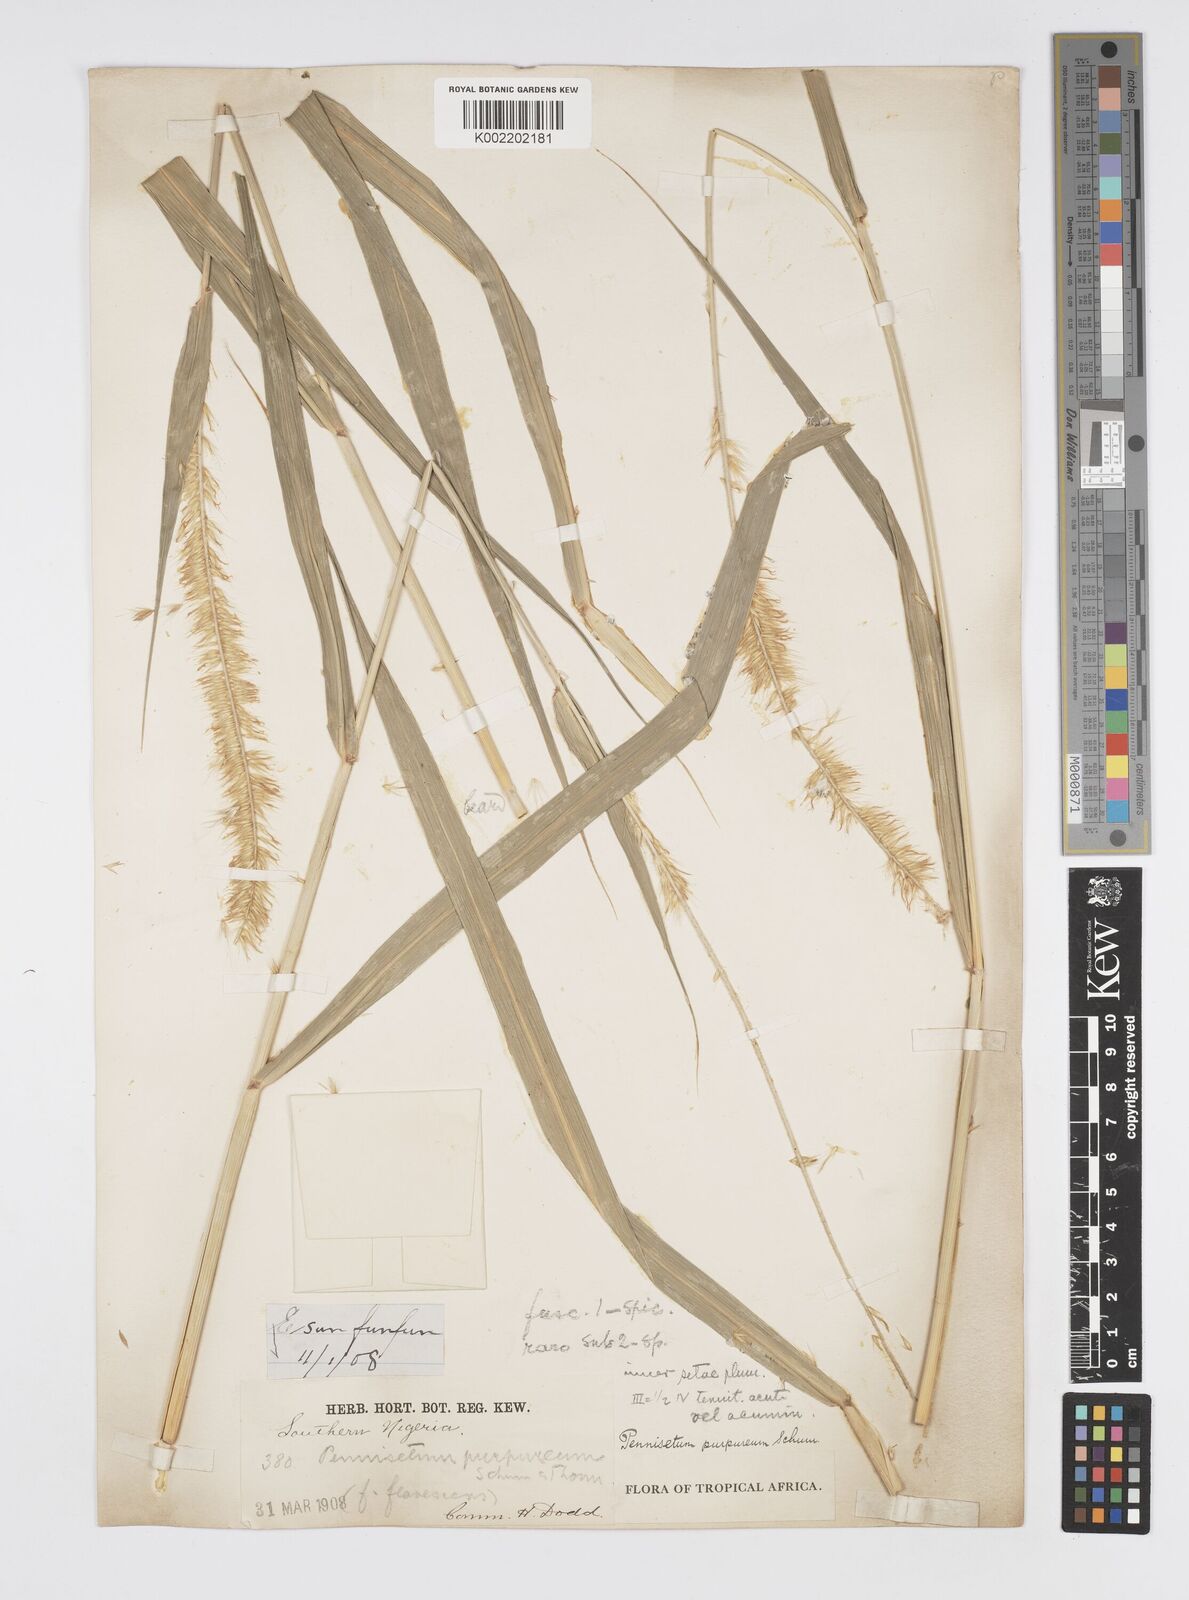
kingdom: Plantae
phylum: Tracheophyta
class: Liliopsida
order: Poales
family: Poaceae
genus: Cenchrus
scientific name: Cenchrus purpureus
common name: Elephant grass
